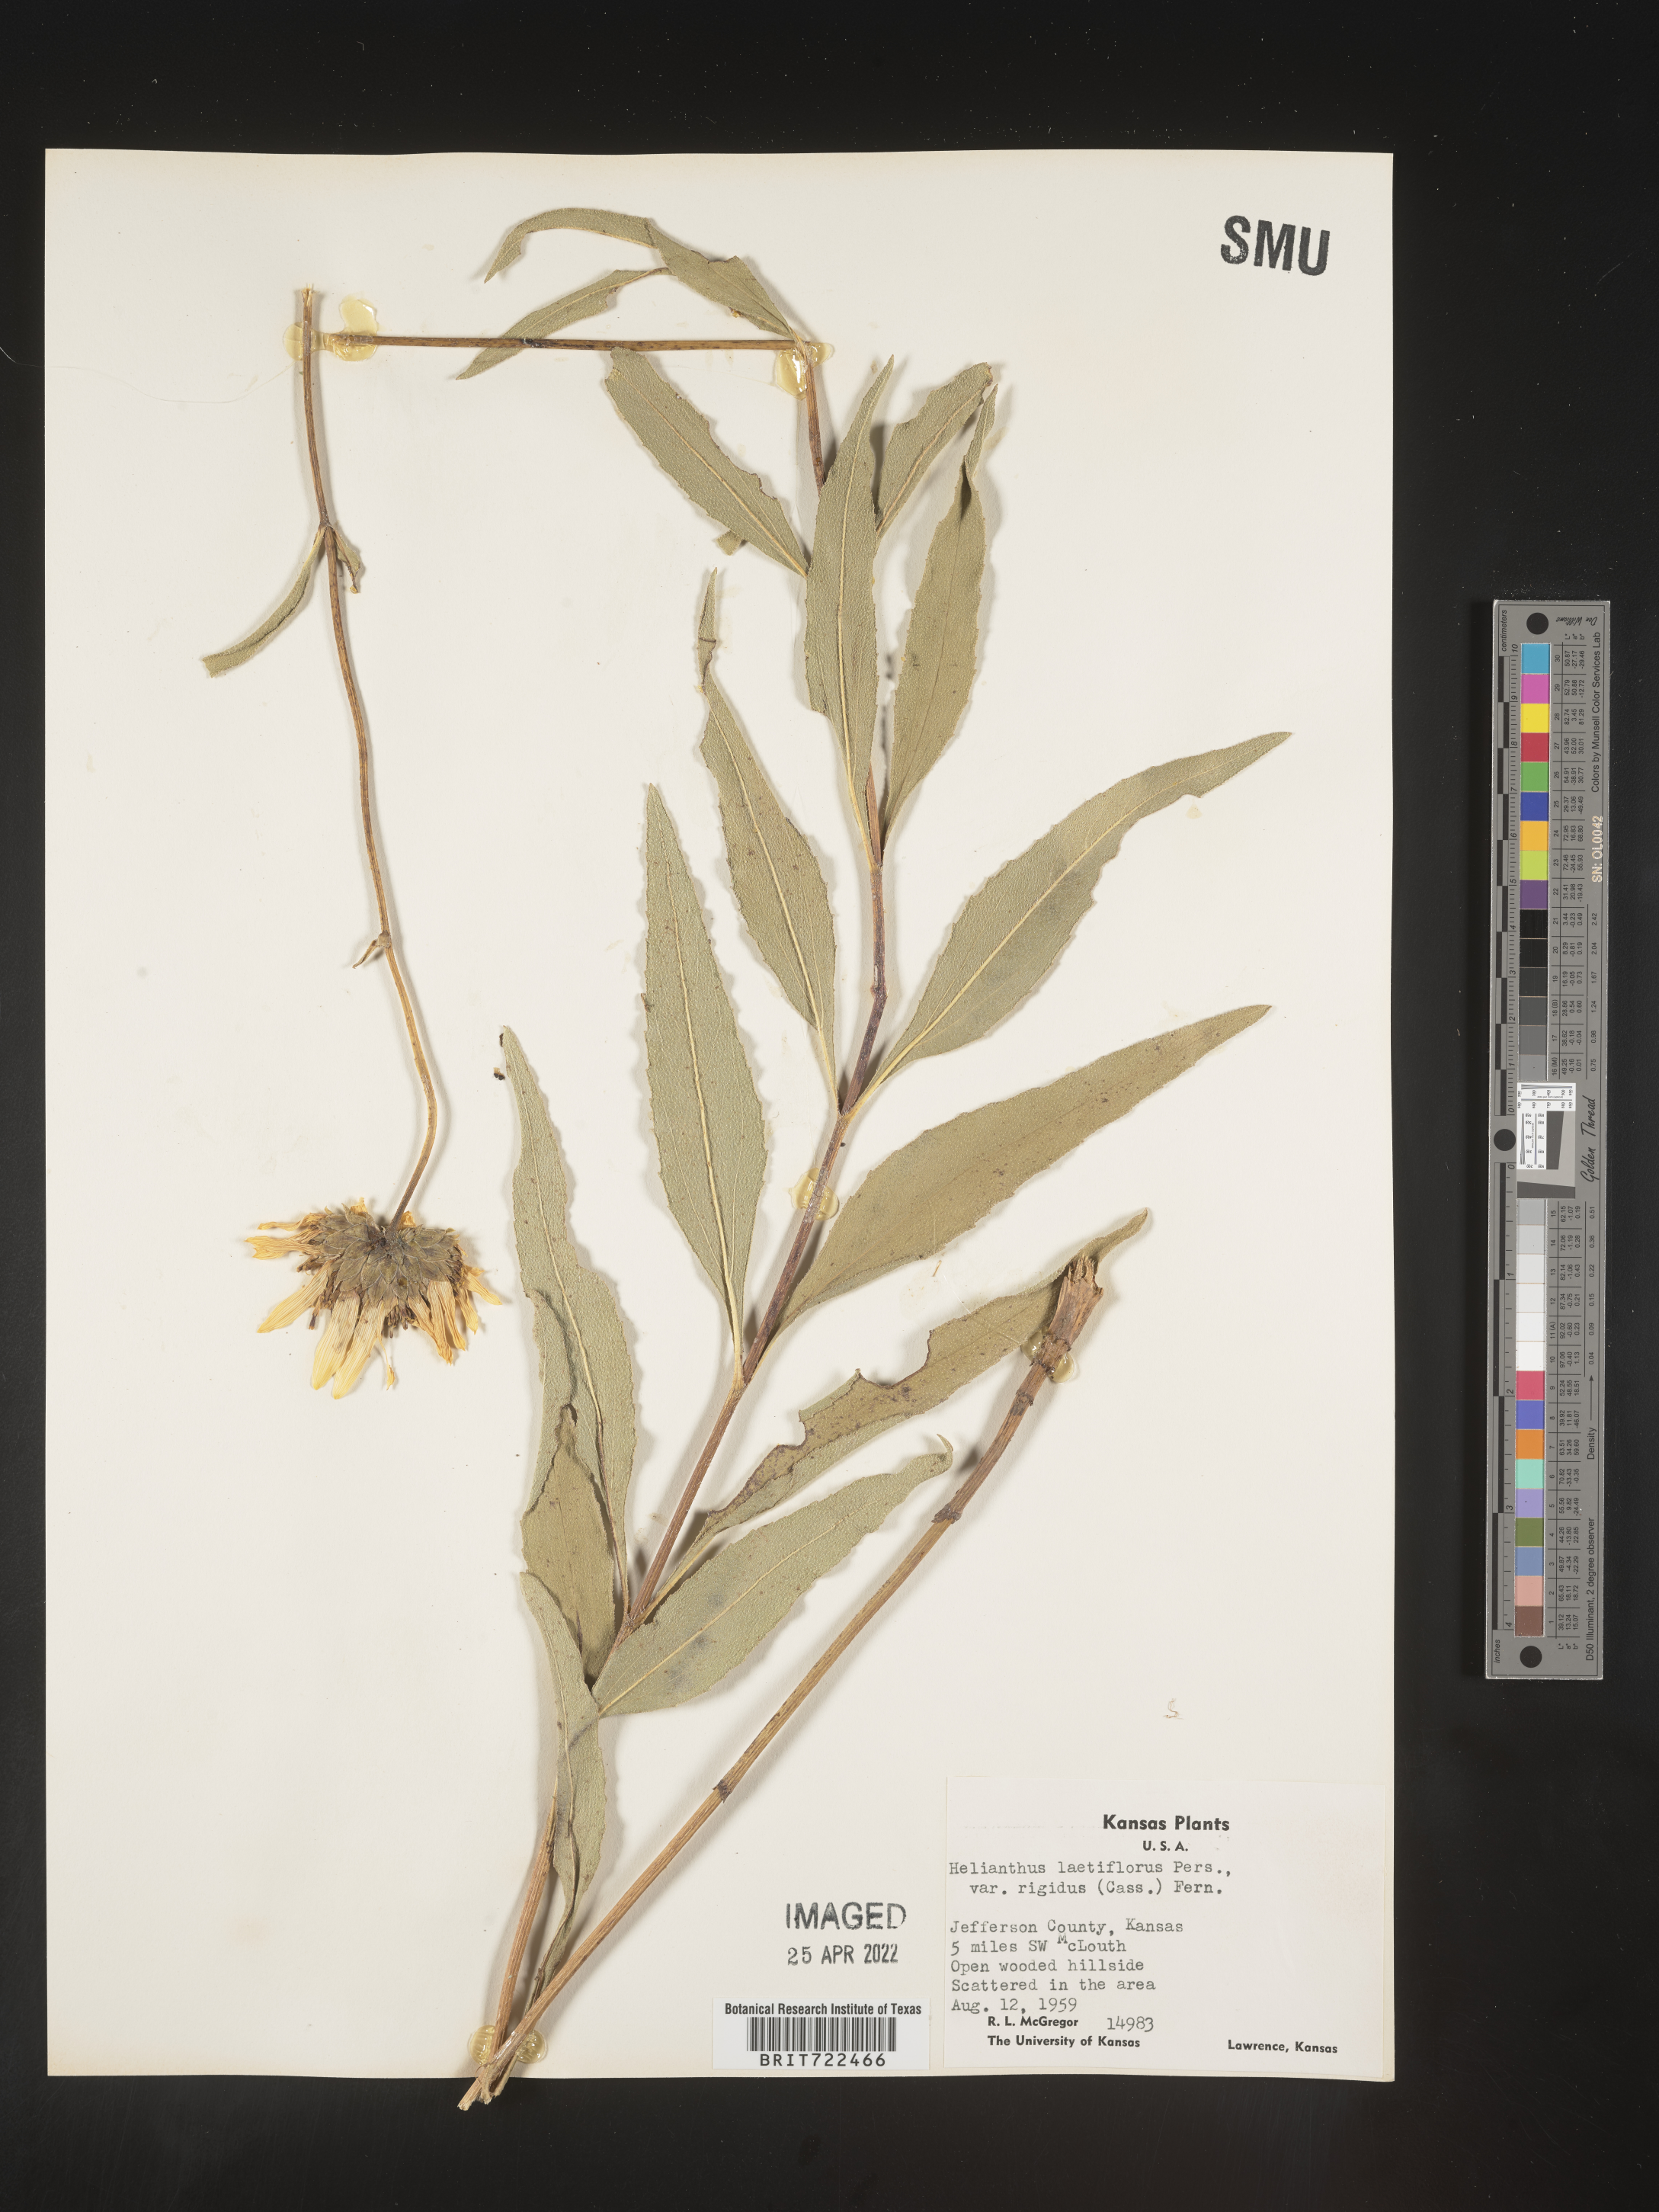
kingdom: Plantae
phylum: Tracheophyta
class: Magnoliopsida
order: Asterales
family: Asteraceae
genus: Helianthus
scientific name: Helianthus laetiflorus
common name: Perennial sunflower
